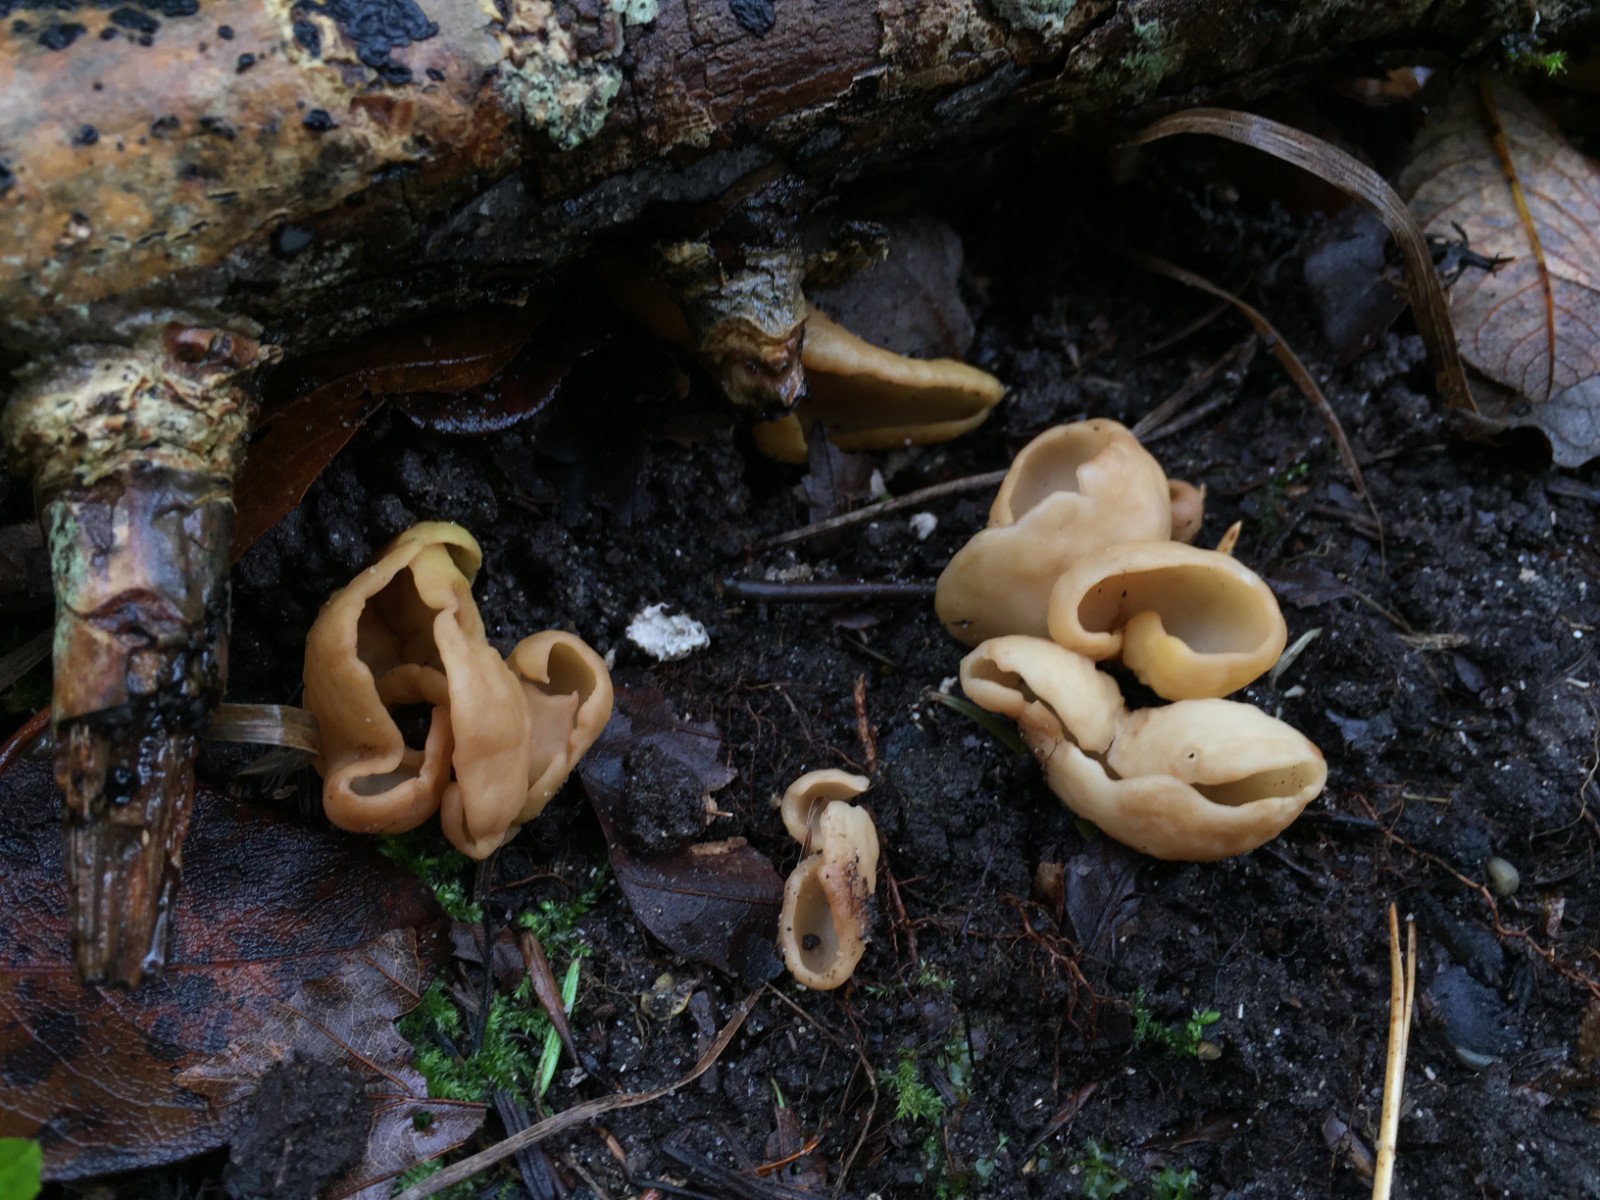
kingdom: Fungi
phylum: Ascomycota
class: Pezizomycetes
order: Pezizales
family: Otideaceae
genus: Otidea
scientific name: Otidea alutacea
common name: læder-ørebæger
